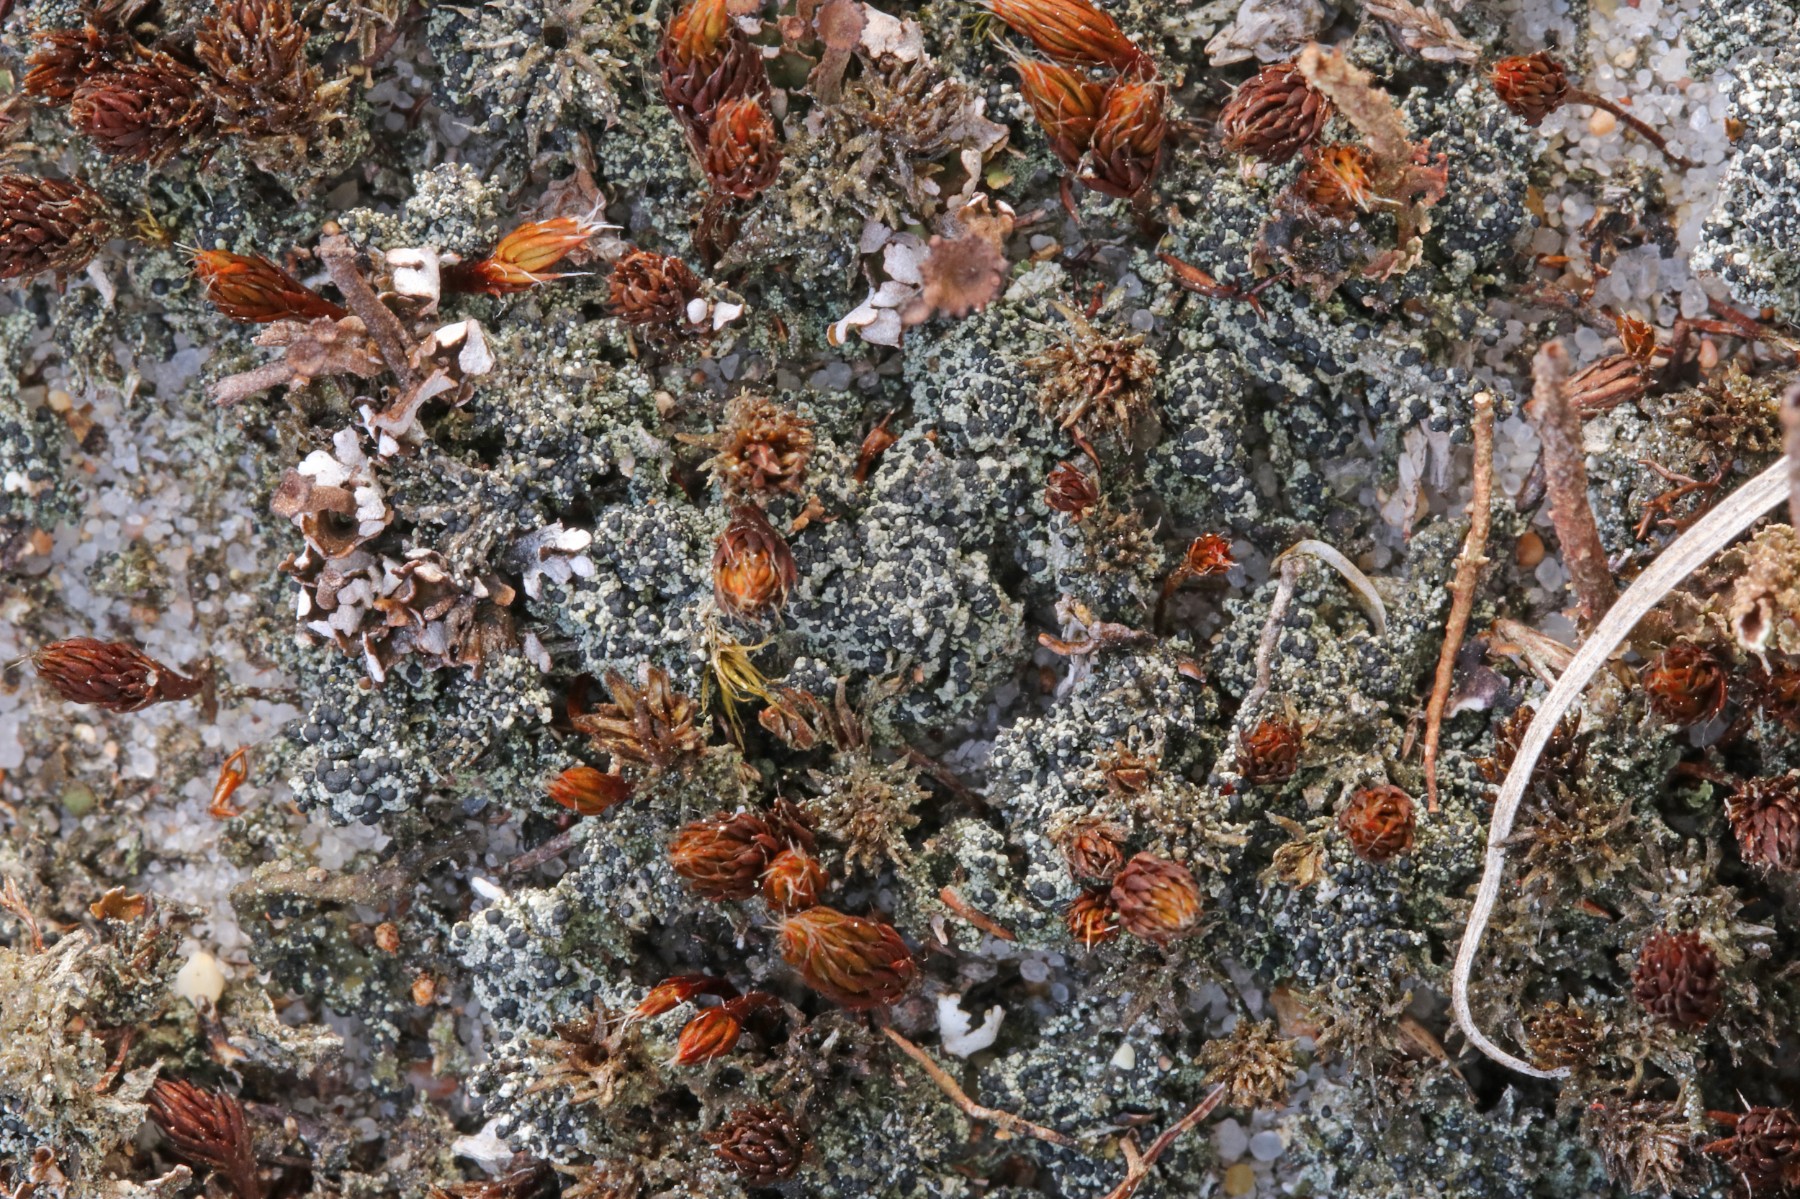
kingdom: Fungi
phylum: Ascomycota
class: Lecanoromycetes
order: Lecanorales
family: Byssolomataceae
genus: Micarea
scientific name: Micarea lignaria
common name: tørve-knaplav
